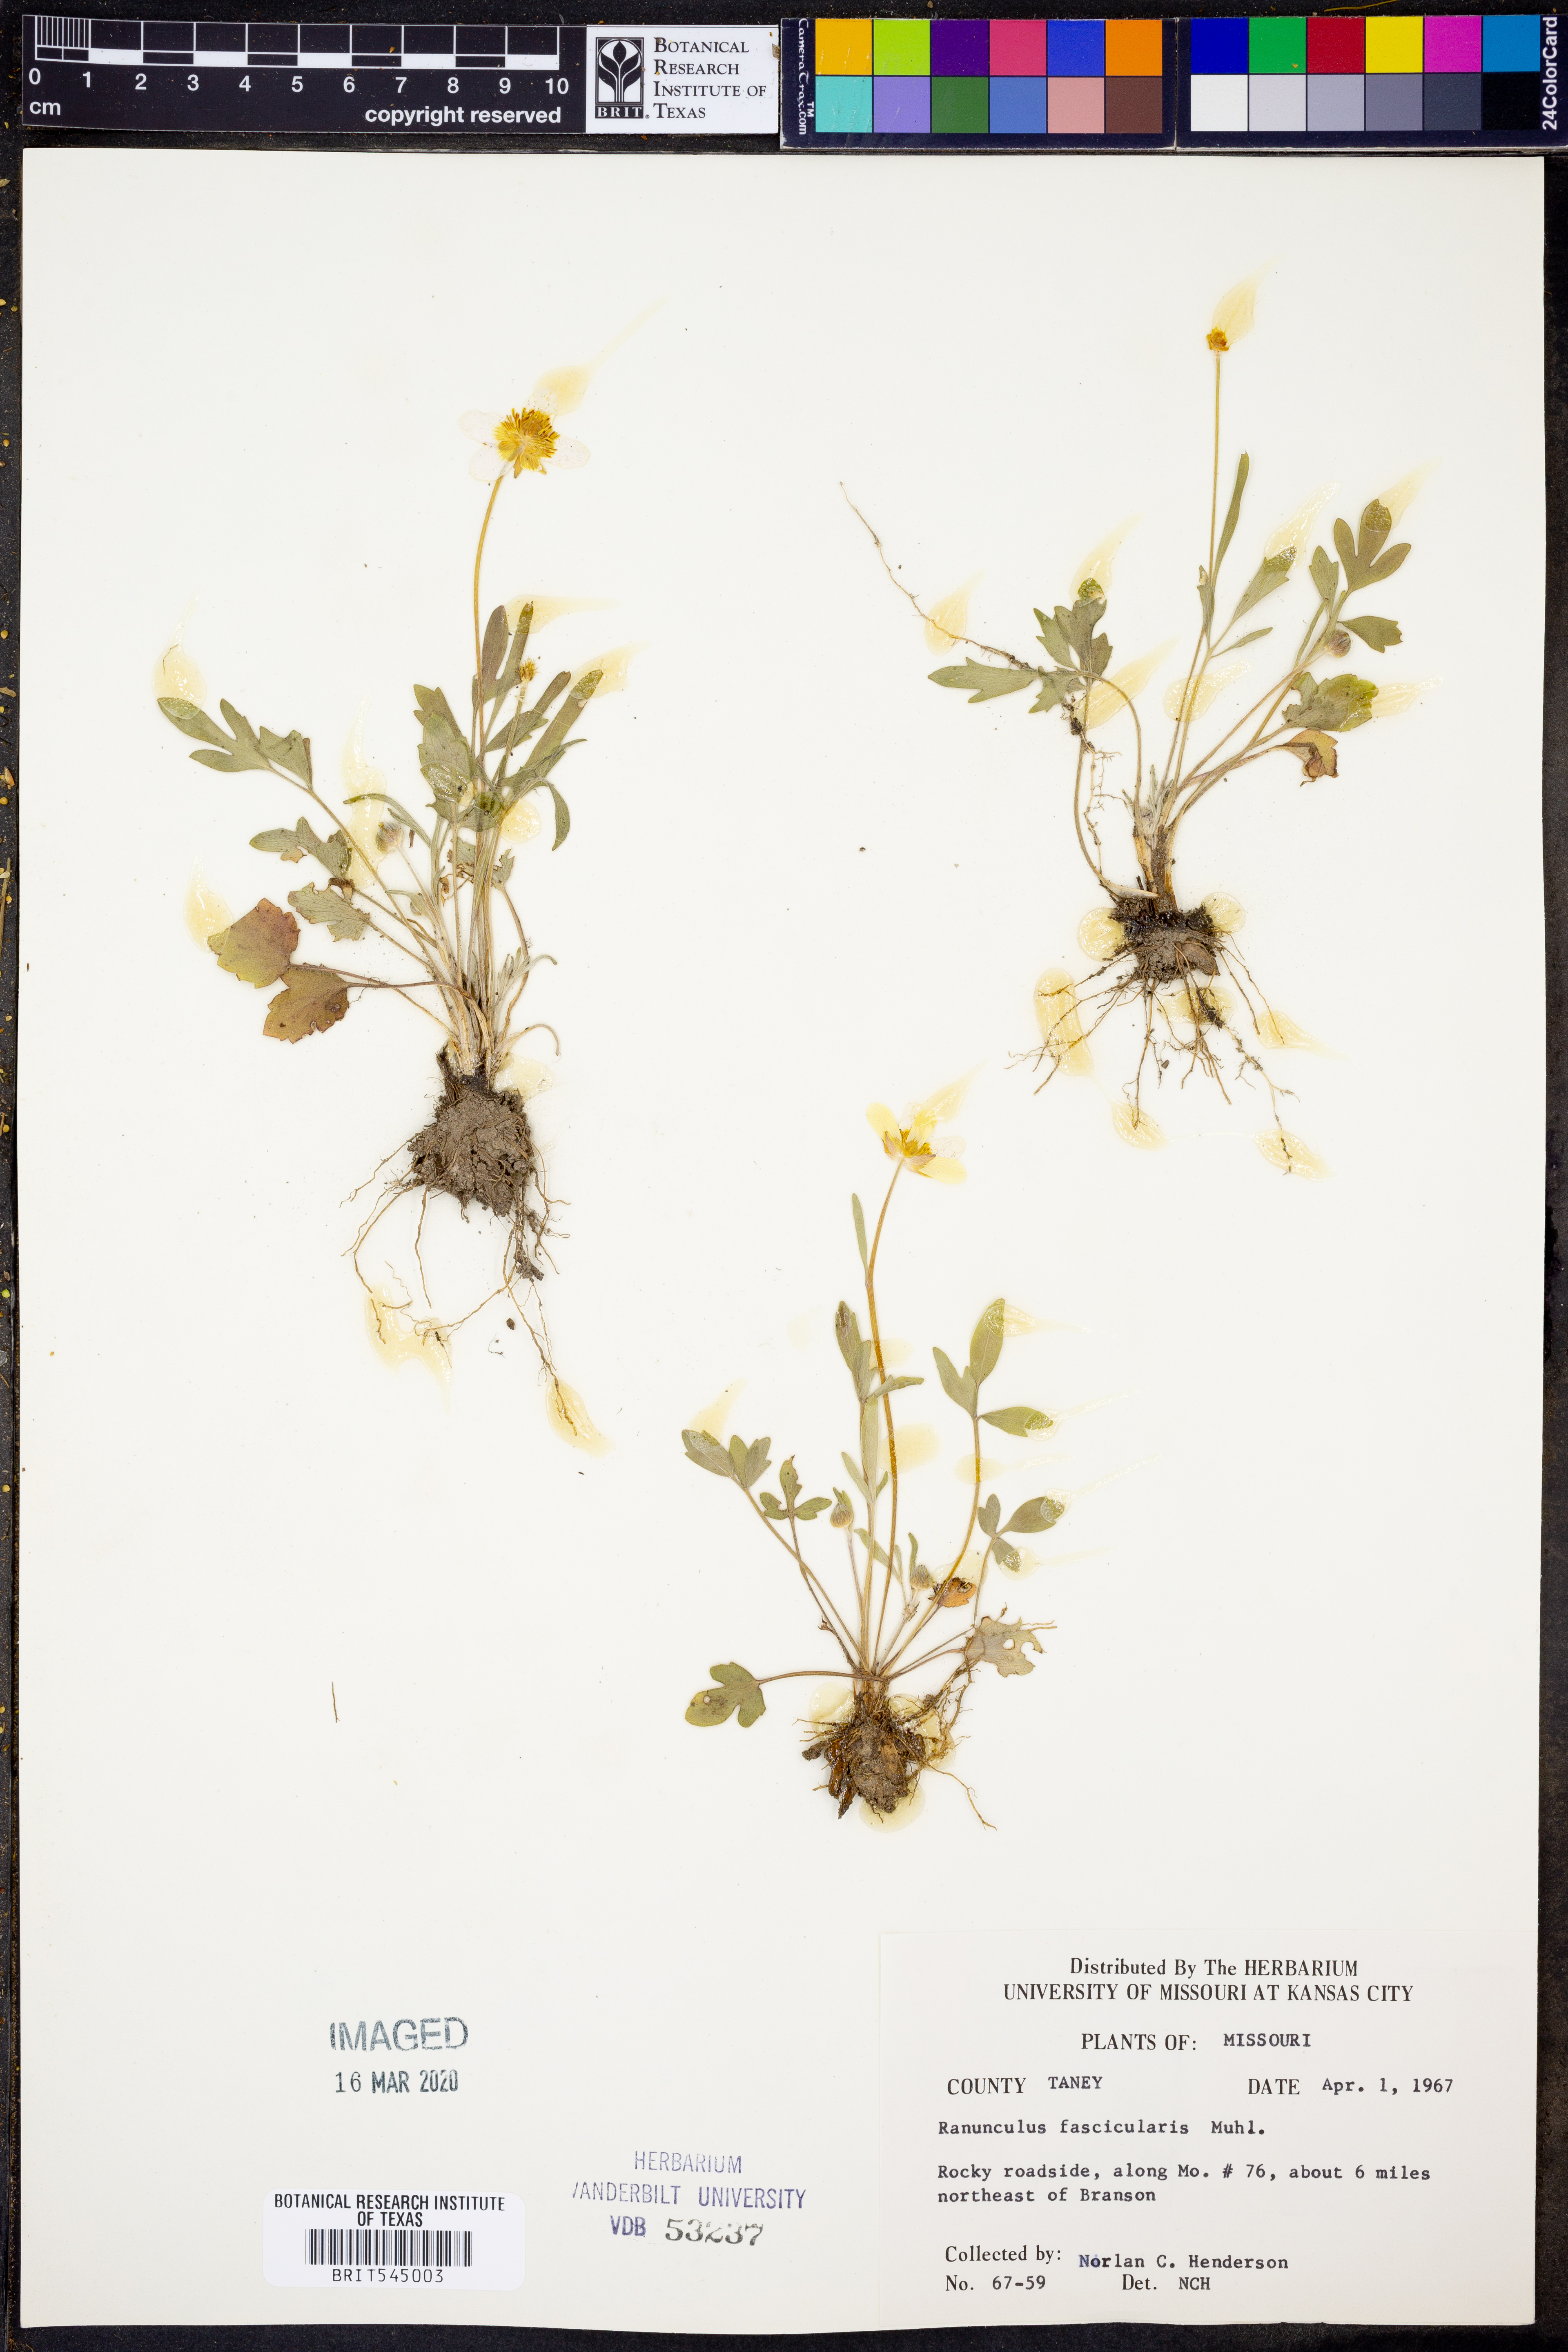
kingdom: Plantae
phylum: Tracheophyta
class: Magnoliopsida
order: Ranunculales
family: Ranunculaceae
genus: Ranunculus
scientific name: Ranunculus fascicularis
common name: Early buttercup
